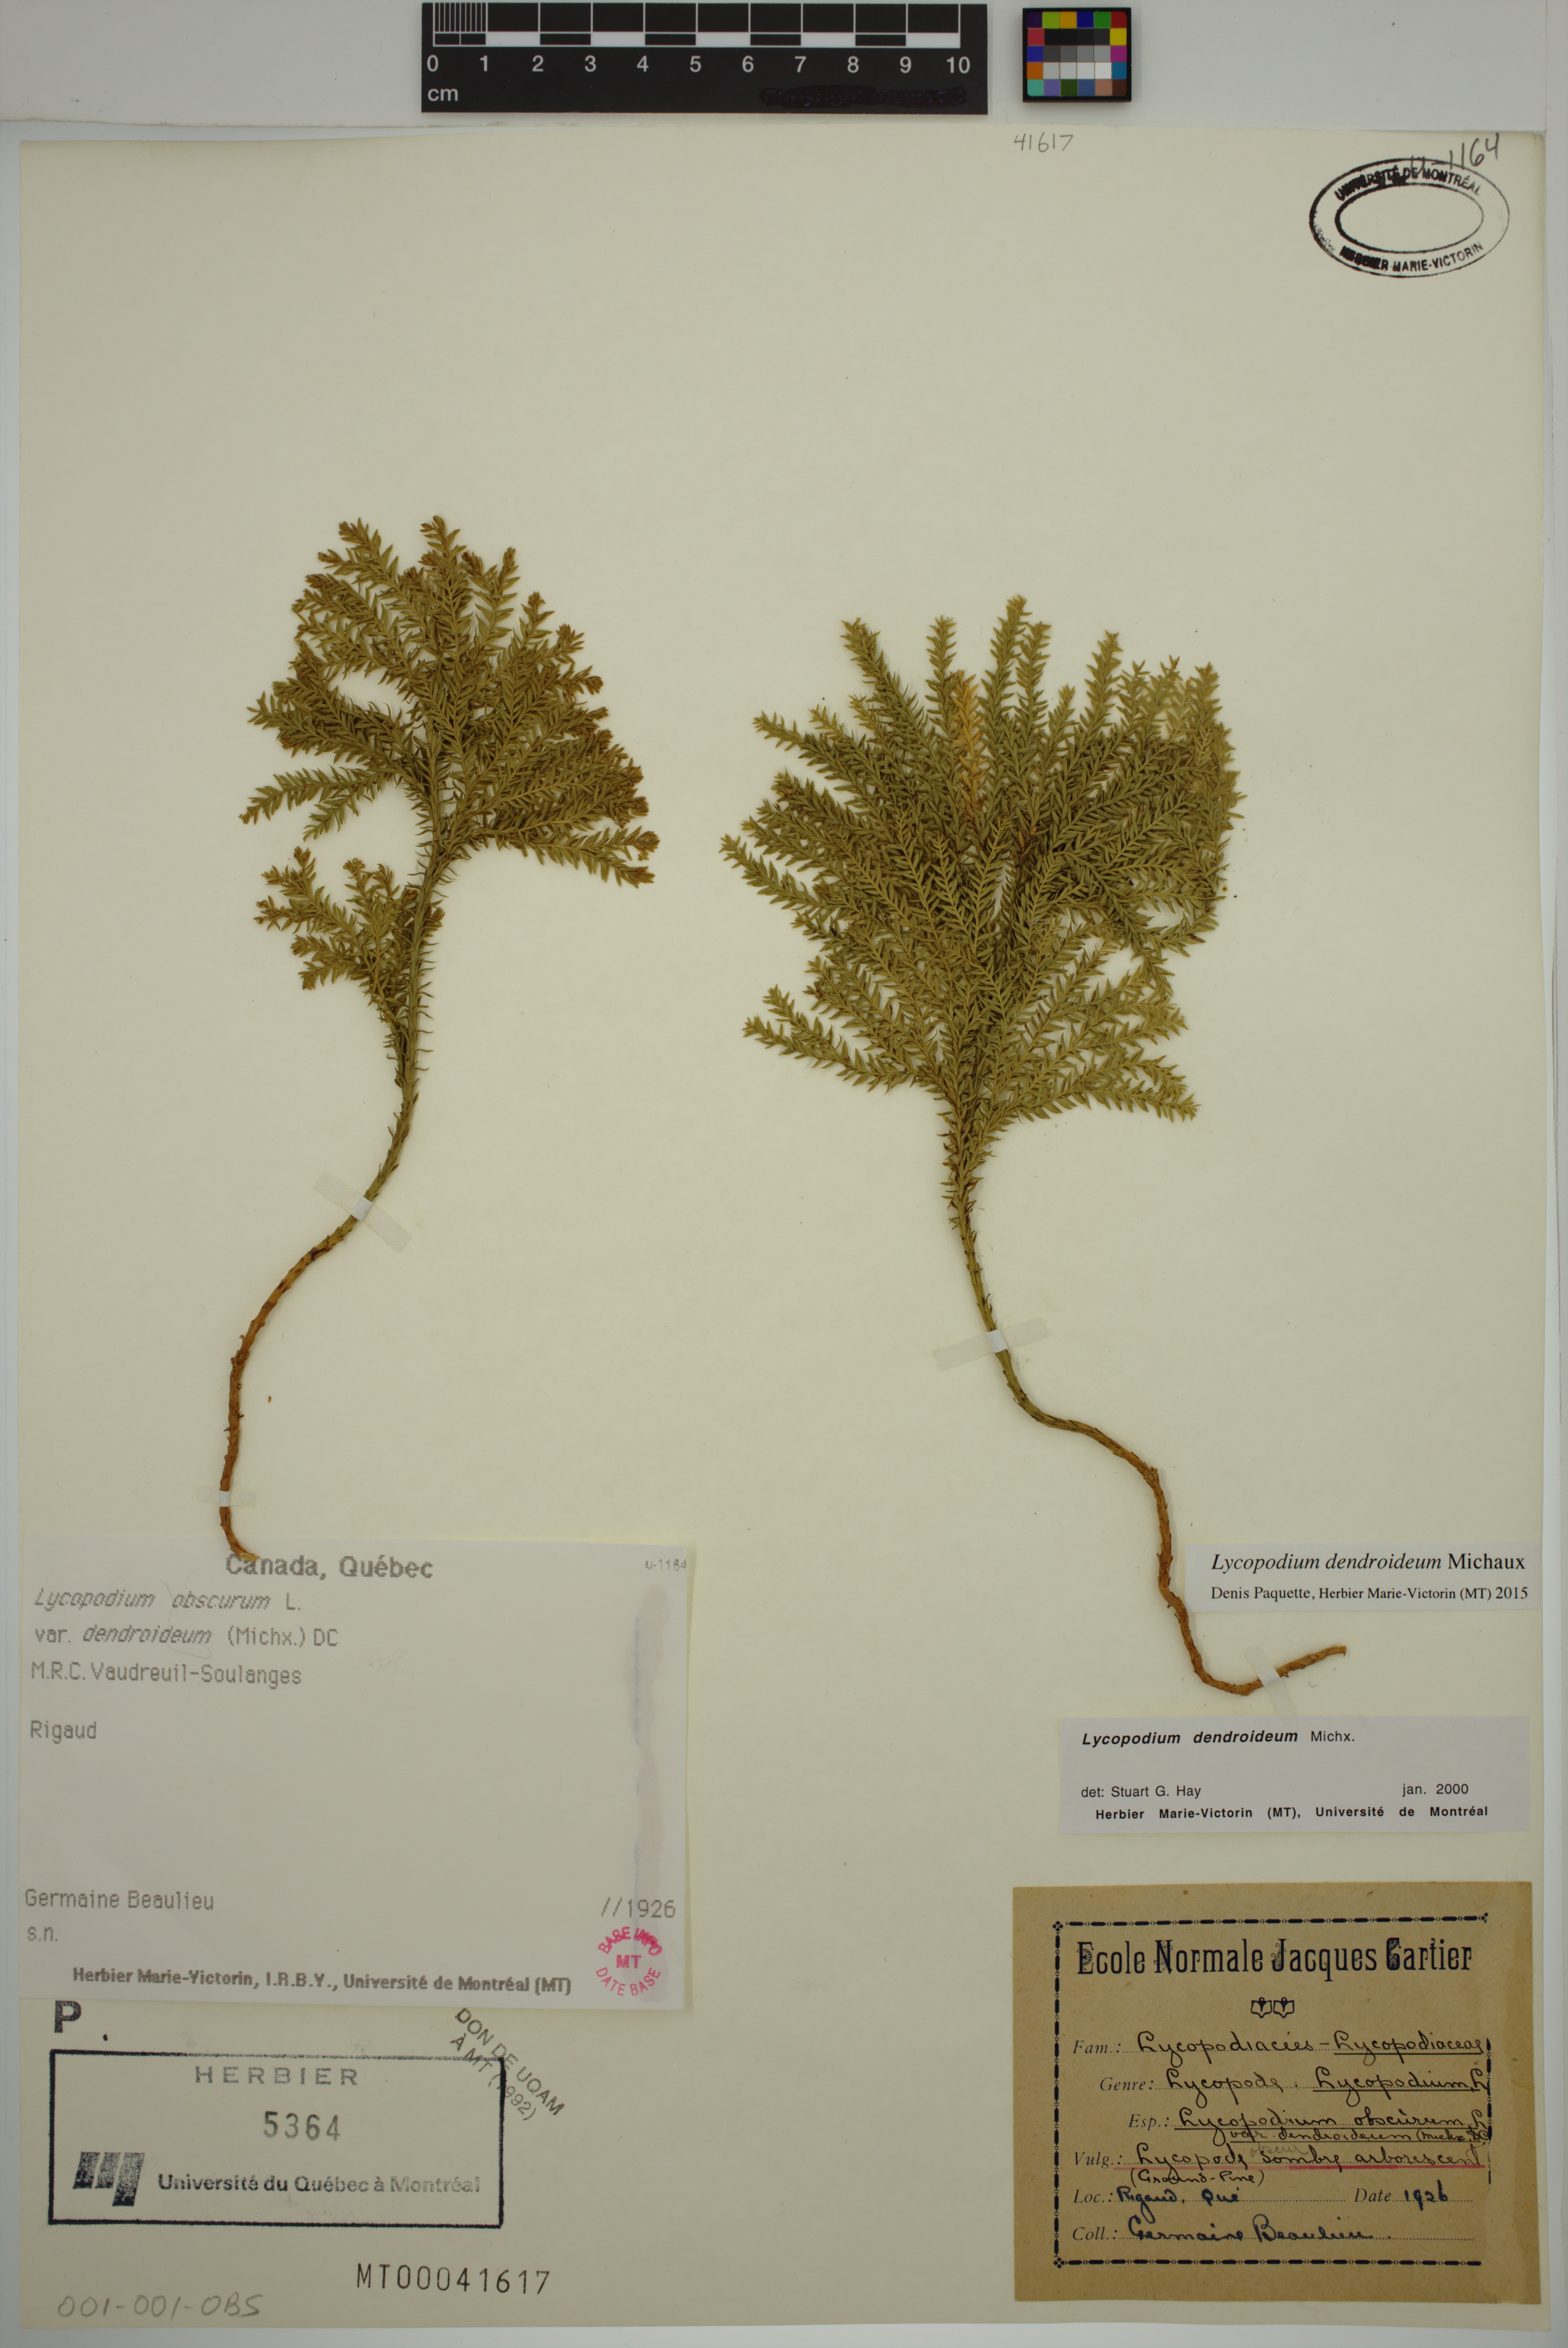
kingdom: Plantae
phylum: Tracheophyta
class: Lycopodiopsida
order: Lycopodiales
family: Lycopodiaceae
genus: Dendrolycopodium
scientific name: Dendrolycopodium dendroideum
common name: Northern tree-clubmoss
